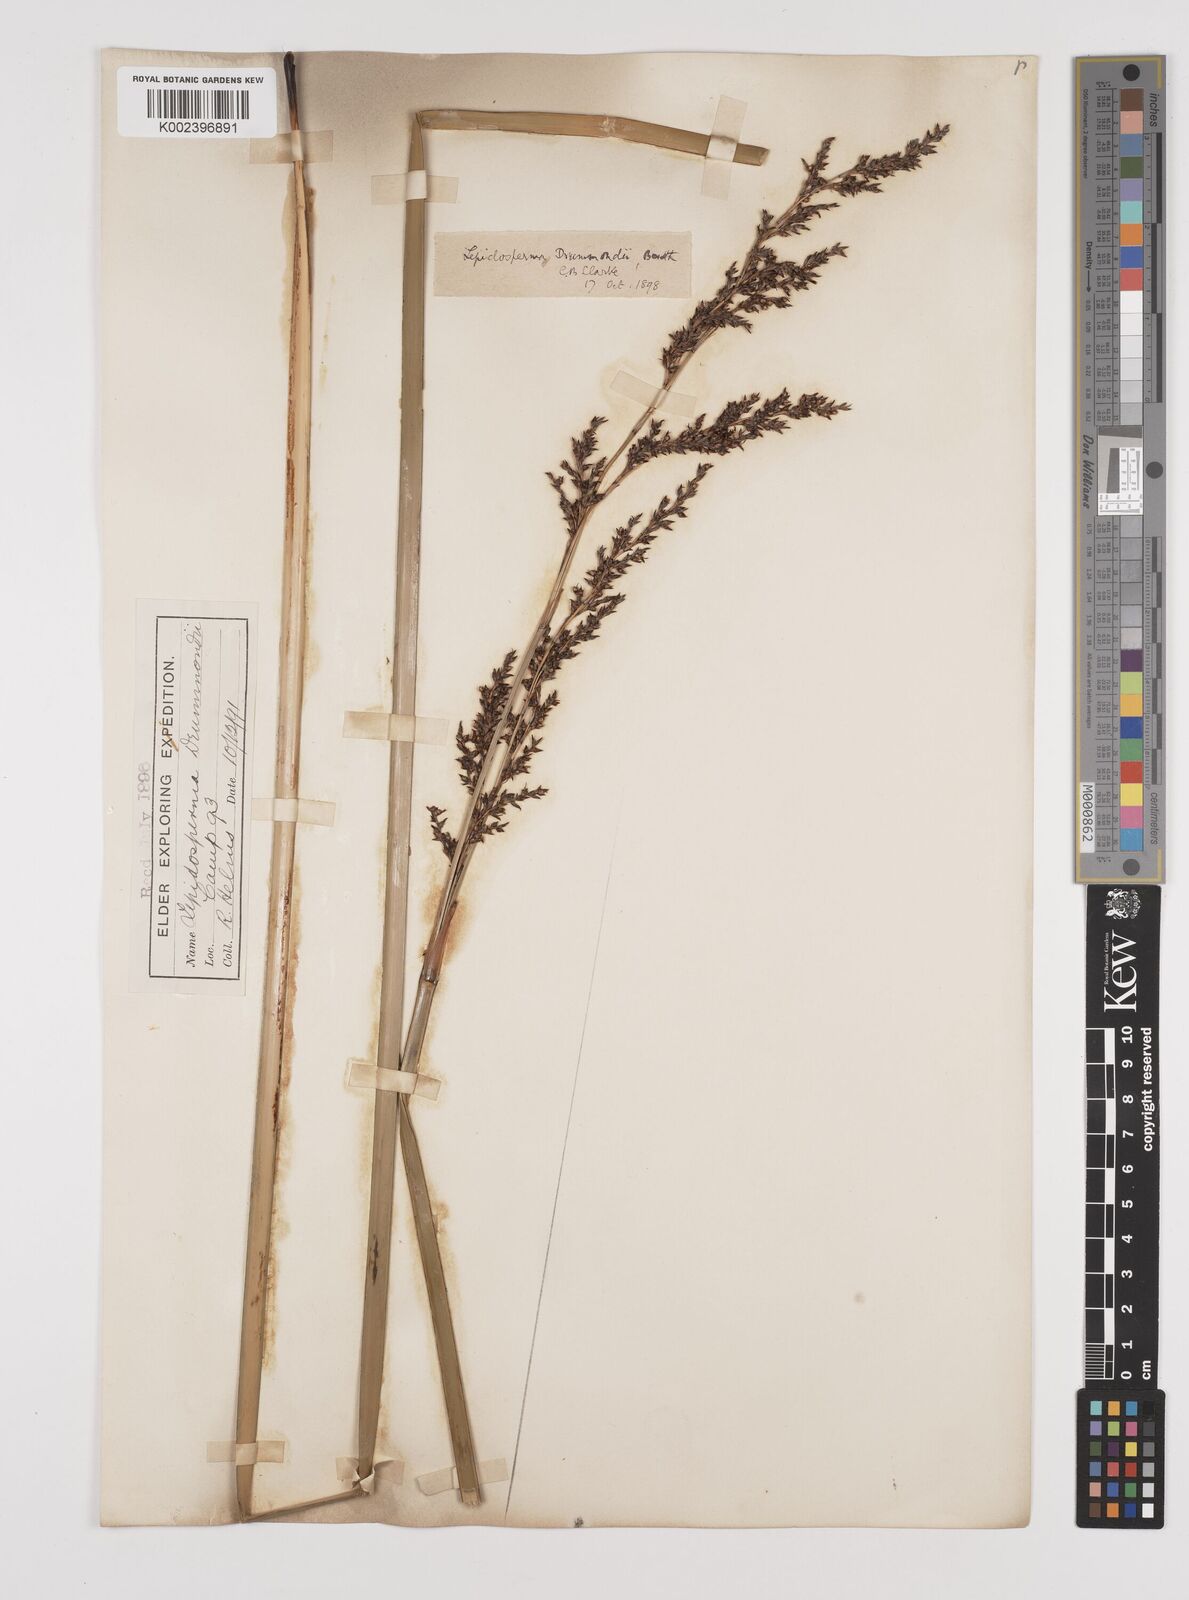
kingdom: Plantae
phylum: Tracheophyta
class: Liliopsida
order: Poales
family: Cyperaceae
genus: Lepidosperma
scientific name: Lepidosperma drummondii
